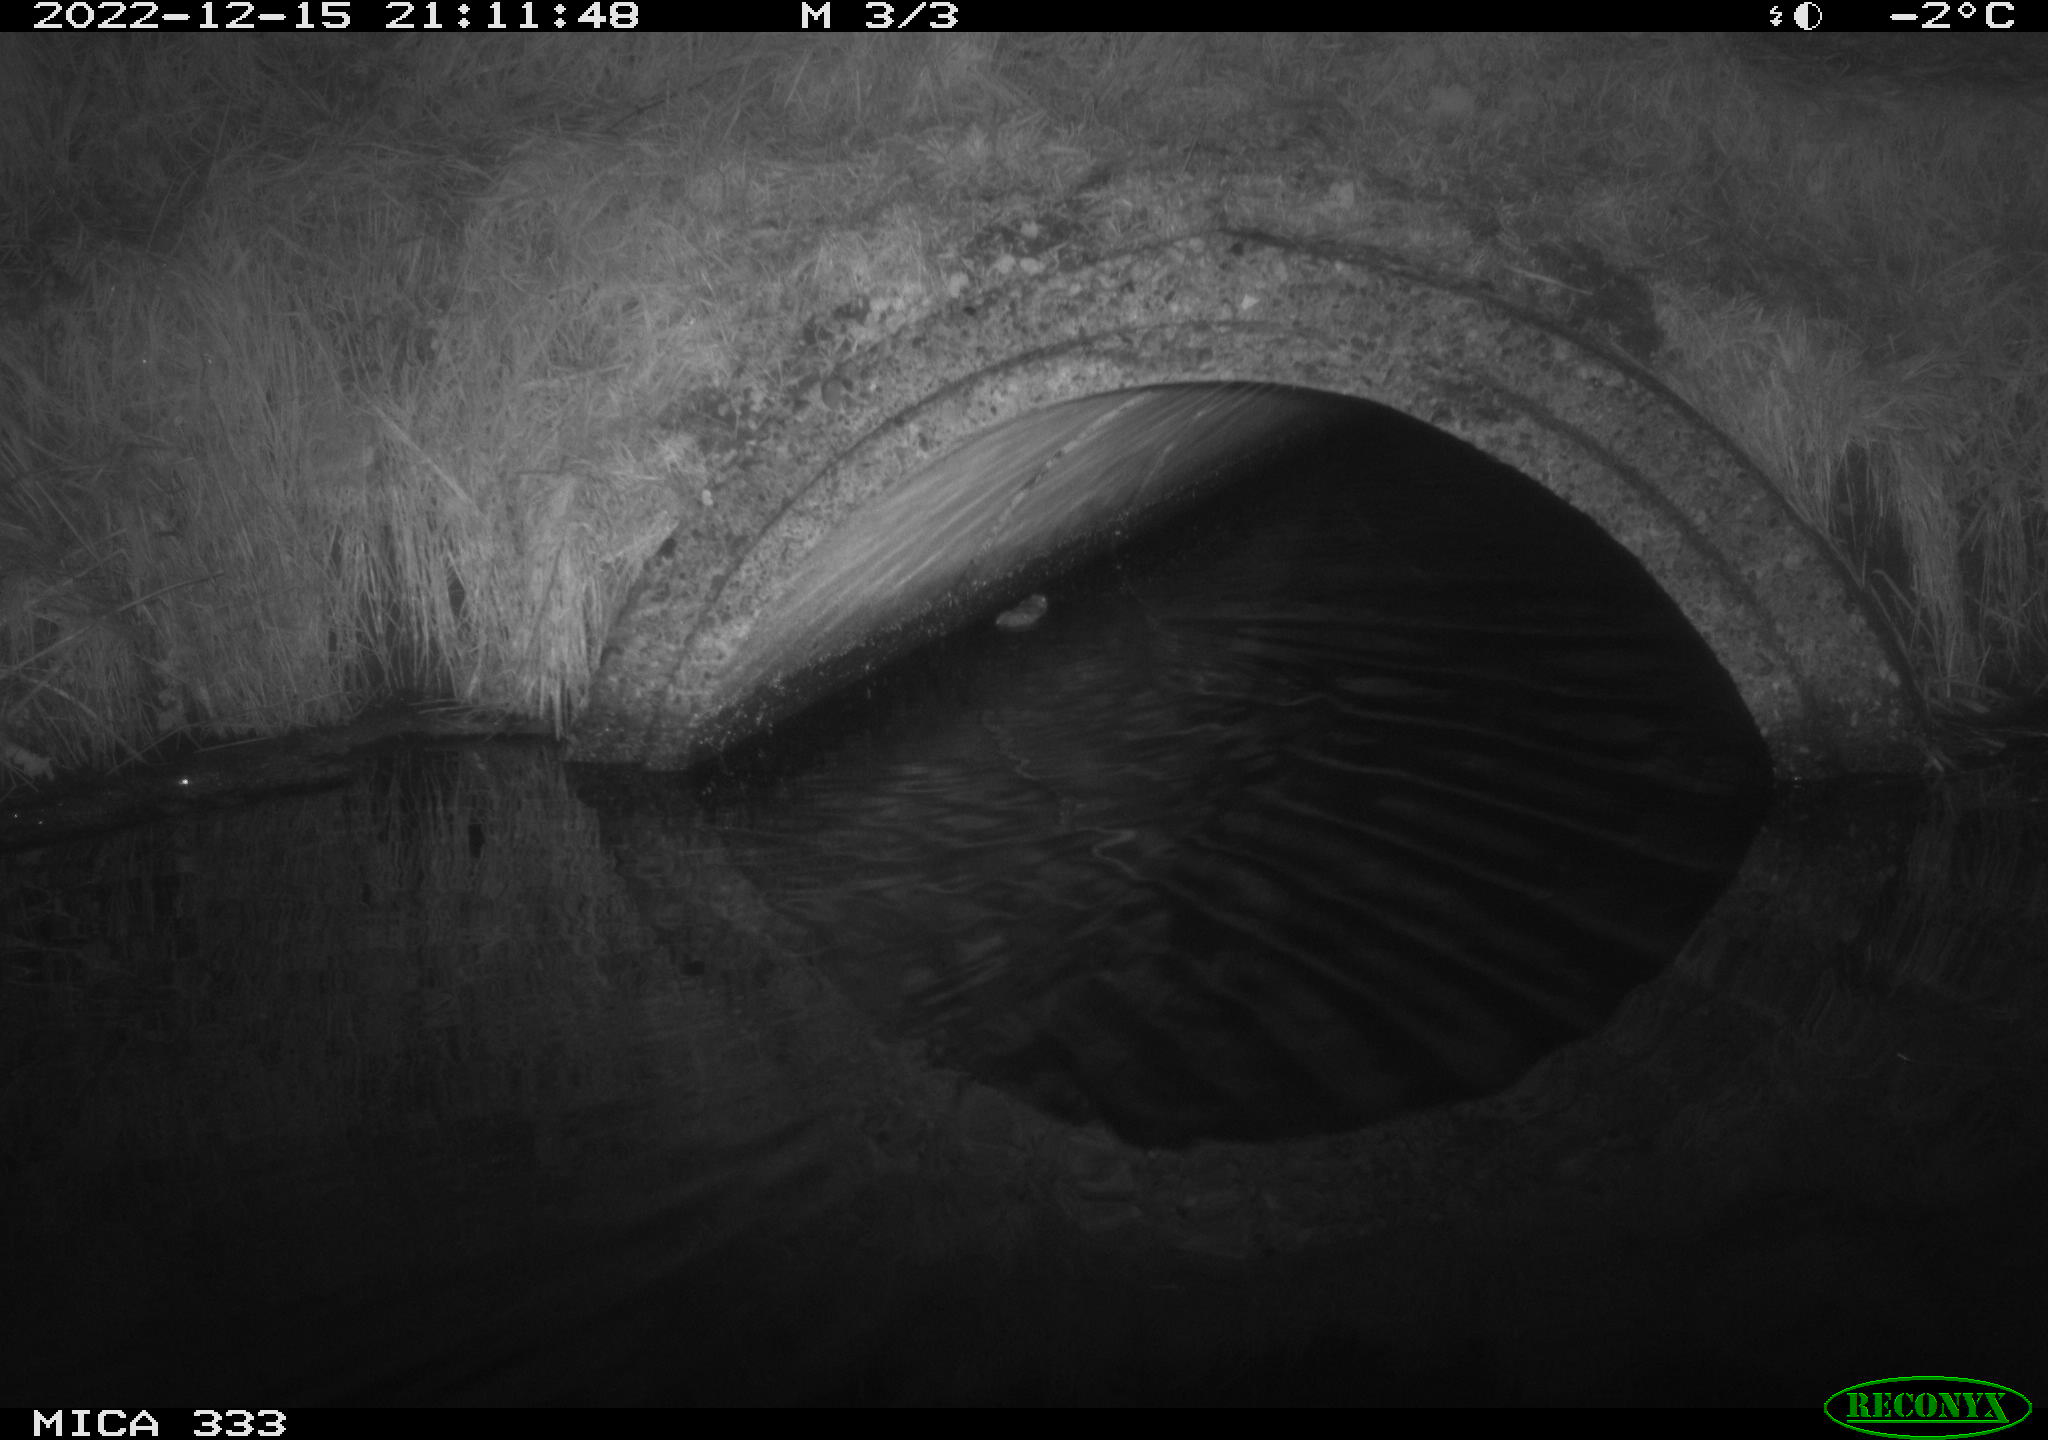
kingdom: Animalia
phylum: Chordata
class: Mammalia
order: Rodentia
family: Muridae
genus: Rattus
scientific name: Rattus norvegicus
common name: Brown rat
